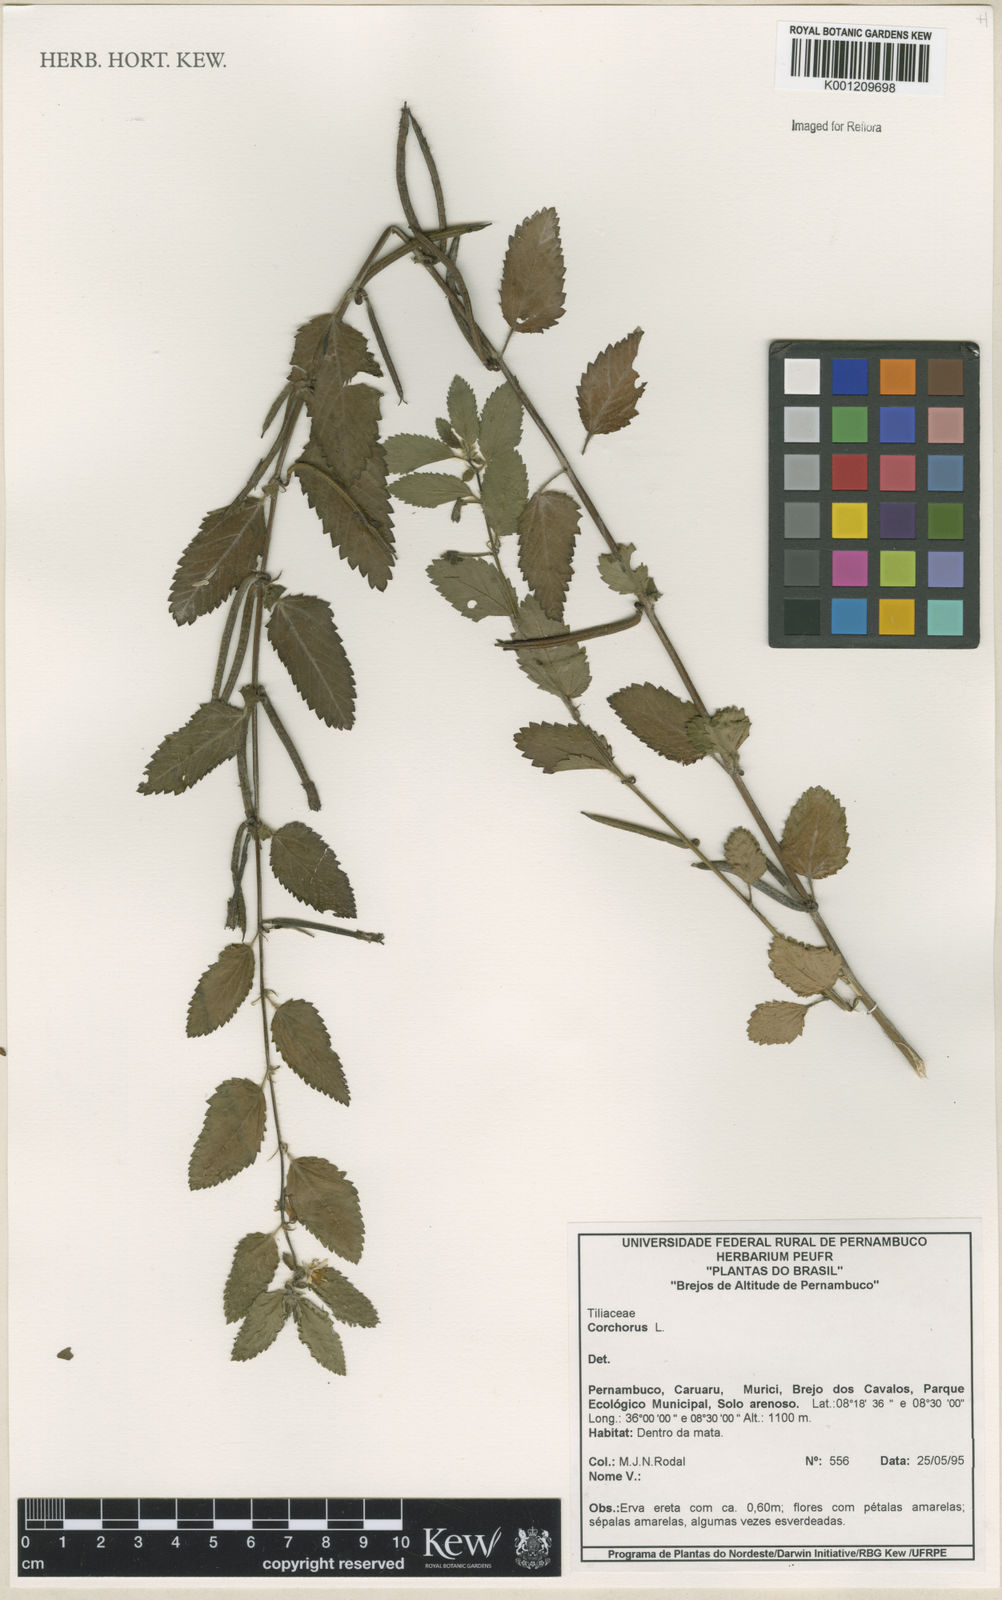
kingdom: Plantae
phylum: Tracheophyta
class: Magnoliopsida
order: Malvales
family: Malvaceae
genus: Corchorus
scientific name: Corchorus
